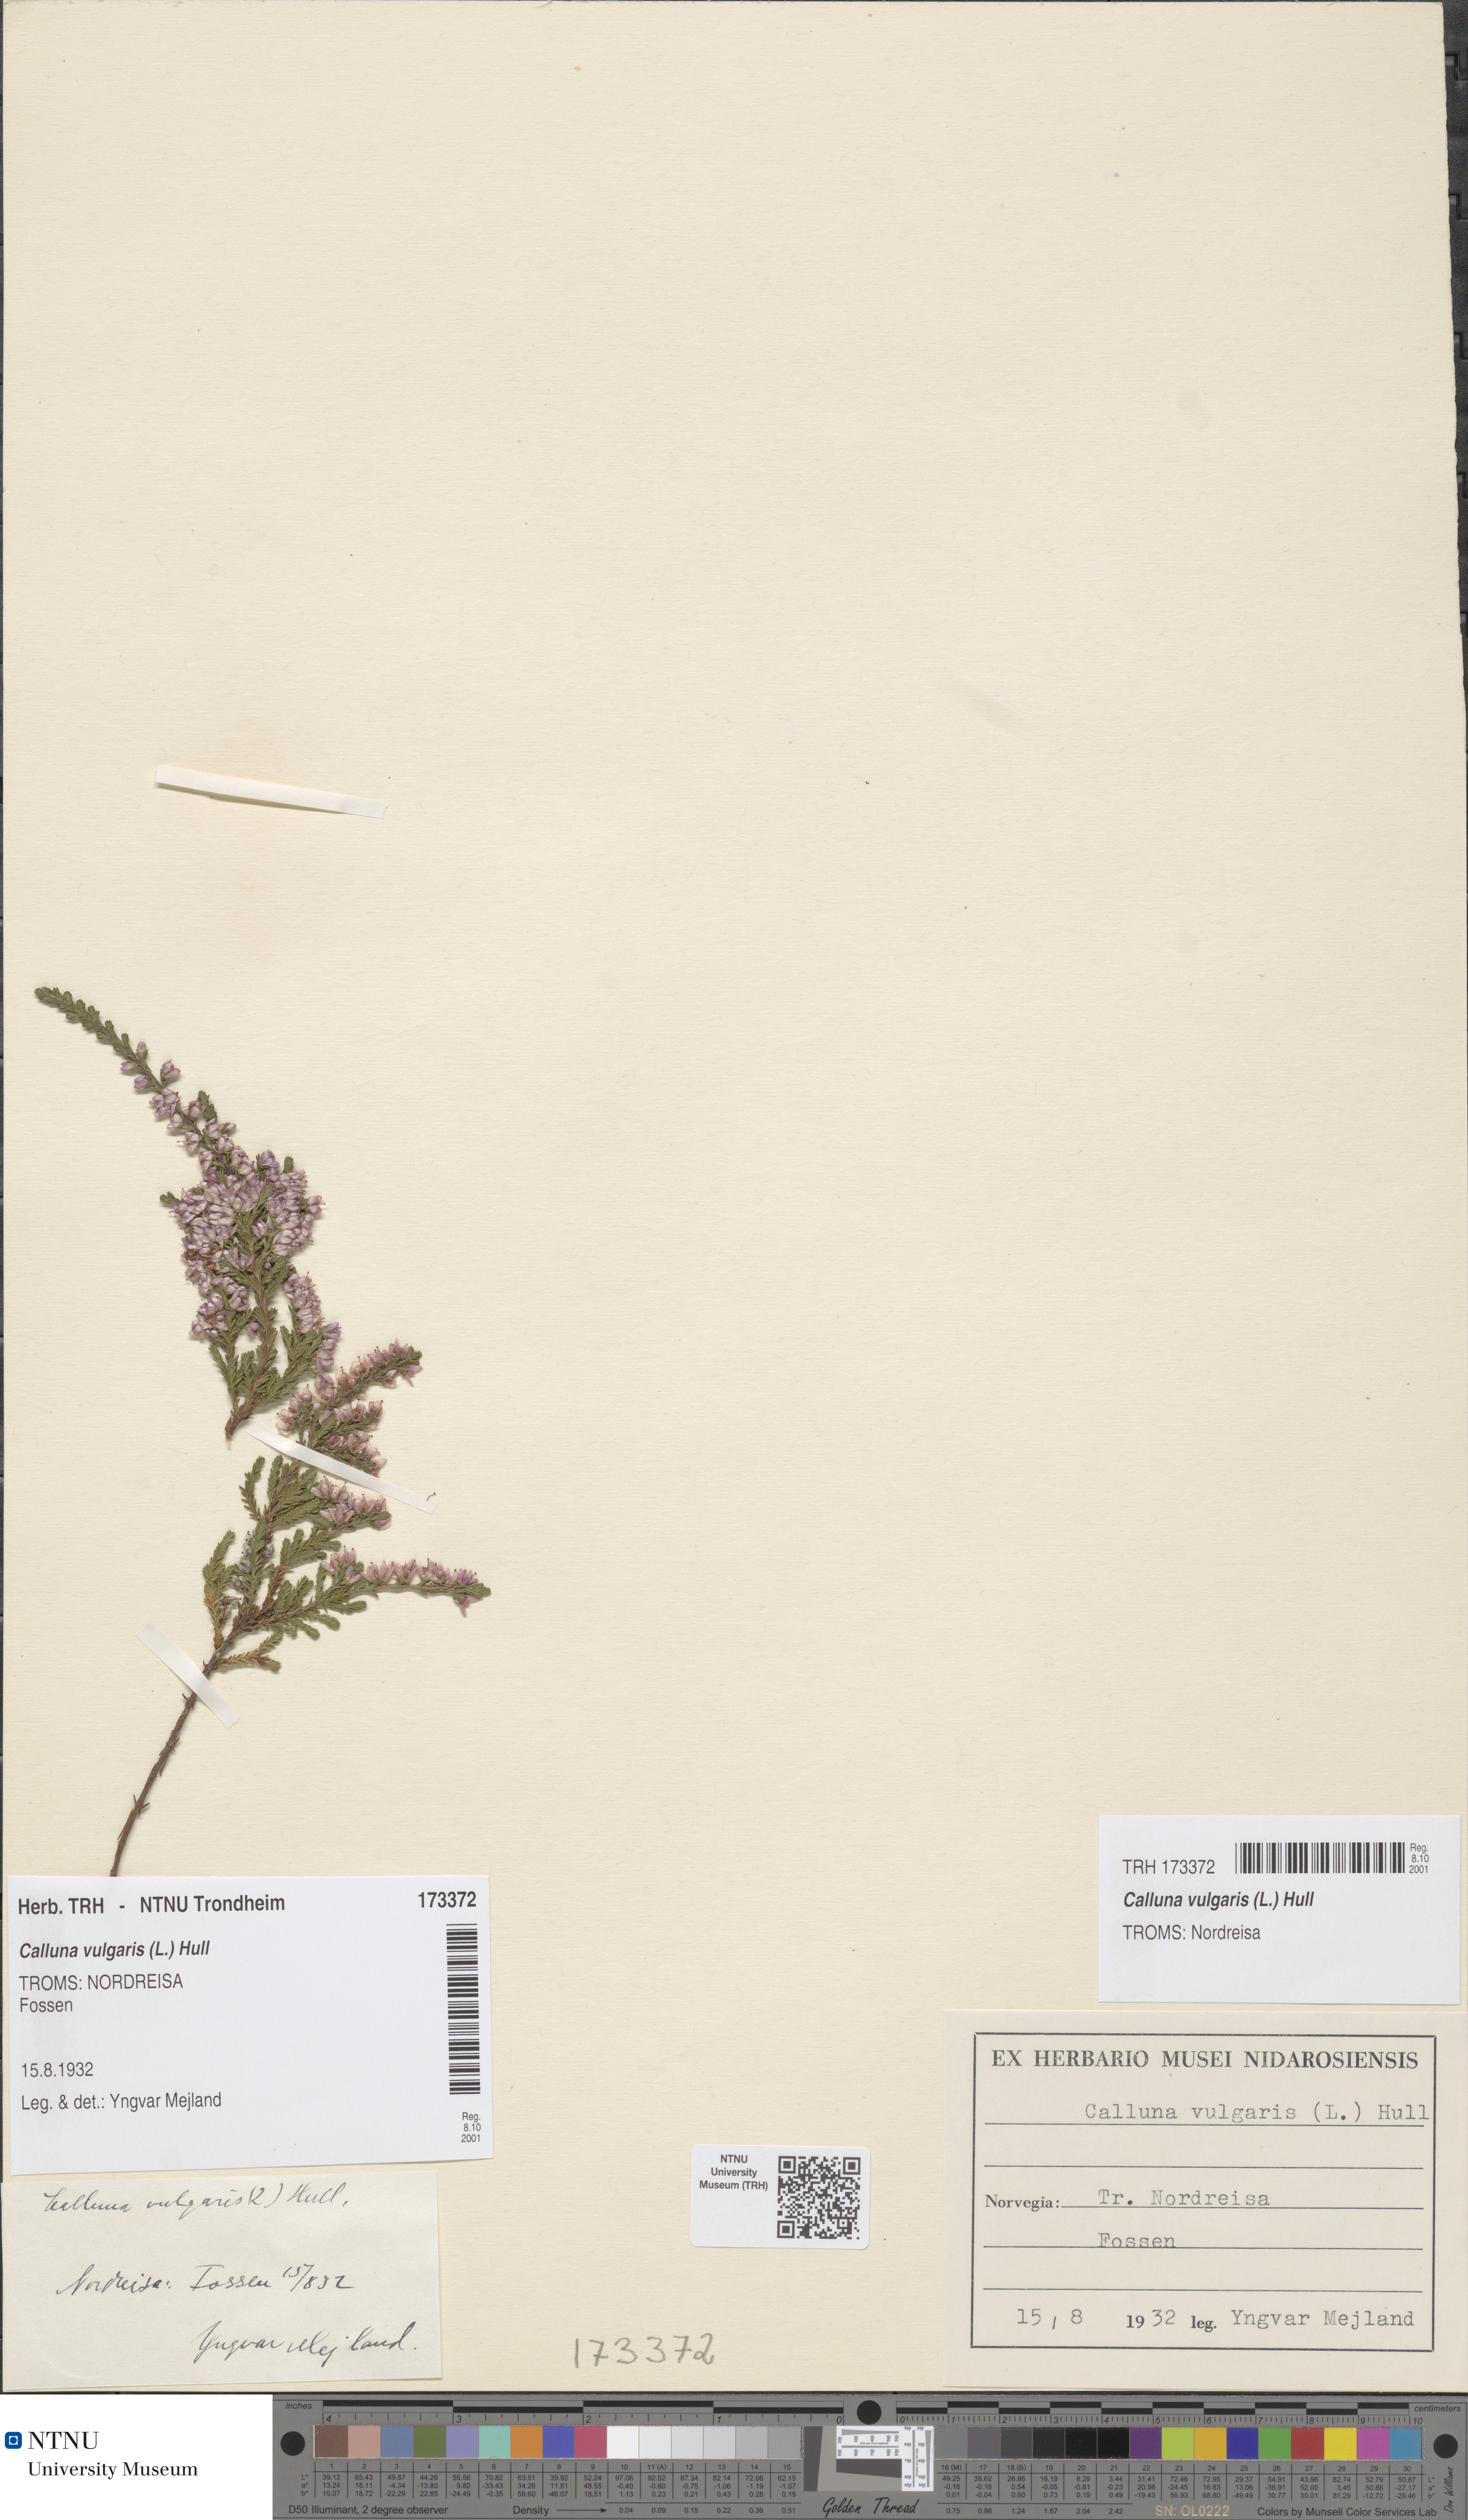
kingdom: Plantae
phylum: Tracheophyta
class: Magnoliopsida
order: Ericales
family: Ericaceae
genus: Calluna
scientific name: Calluna vulgaris
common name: Heather
